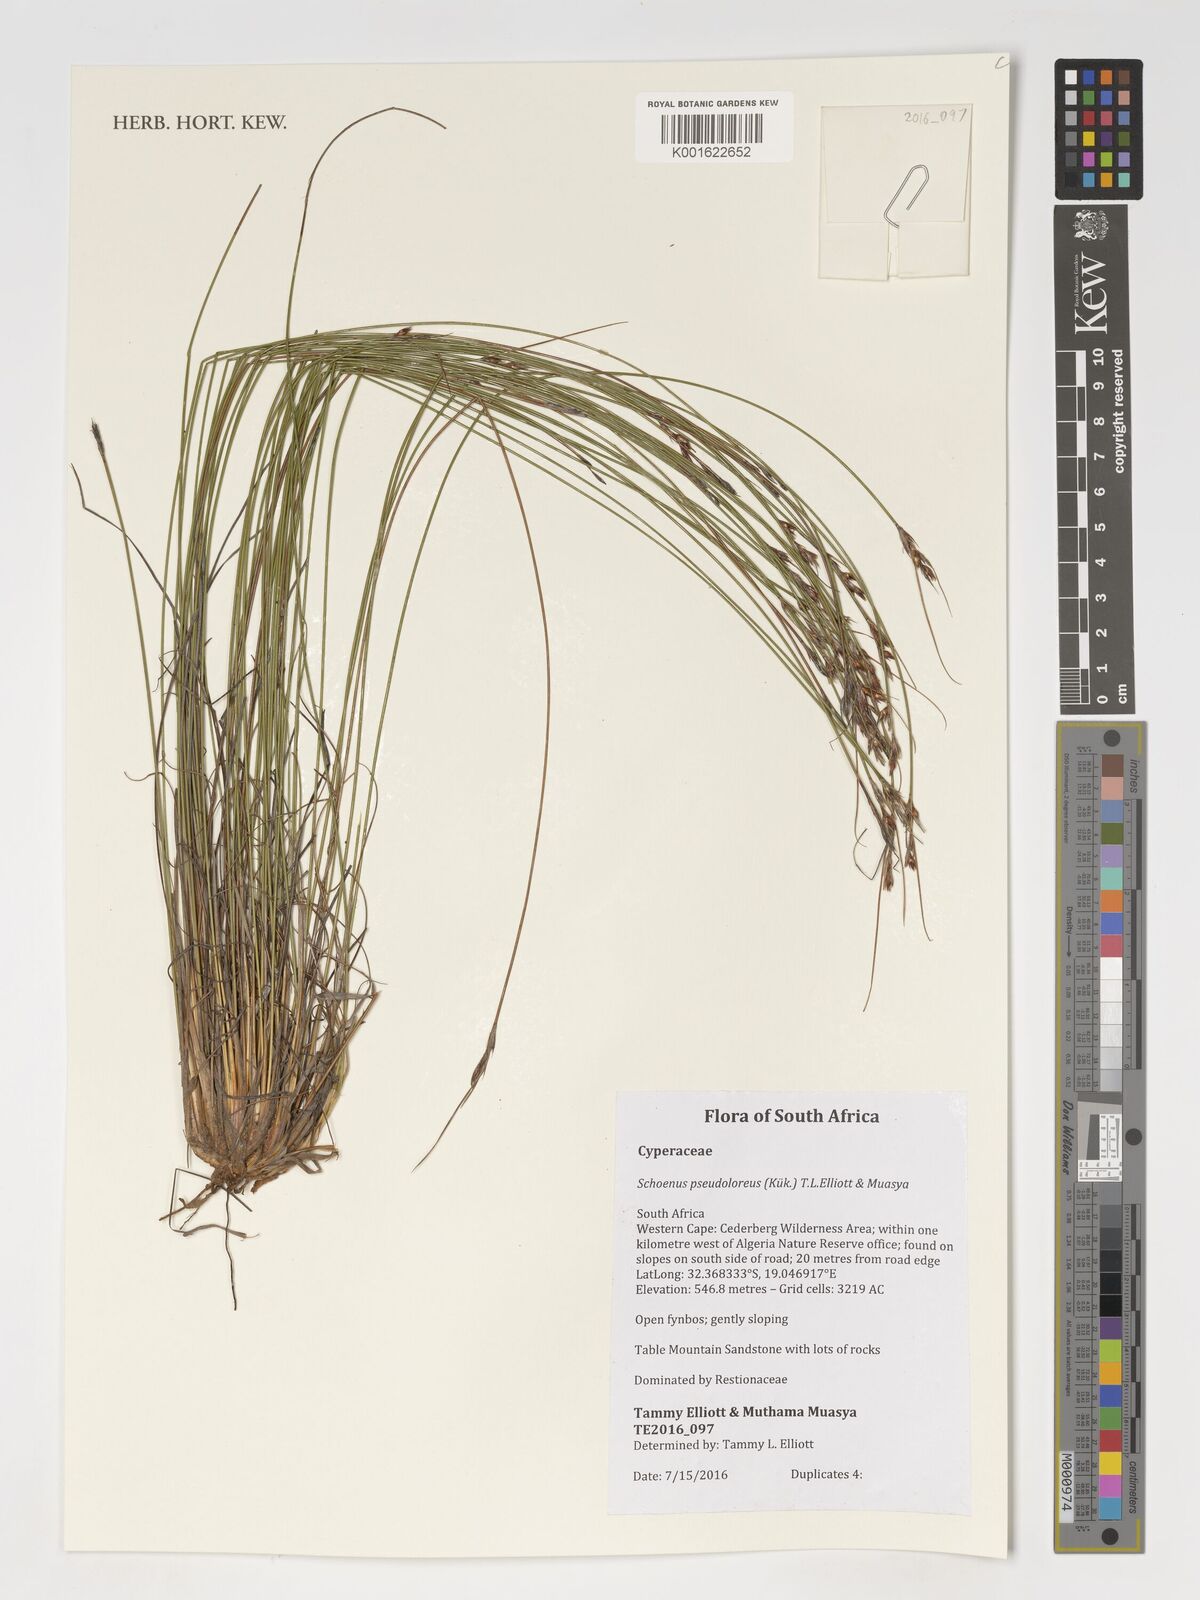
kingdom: Plantae
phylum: Tracheophyta
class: Liliopsida
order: Poales
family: Cyperaceae
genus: Schoenus
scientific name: Schoenus pseudoloreus
